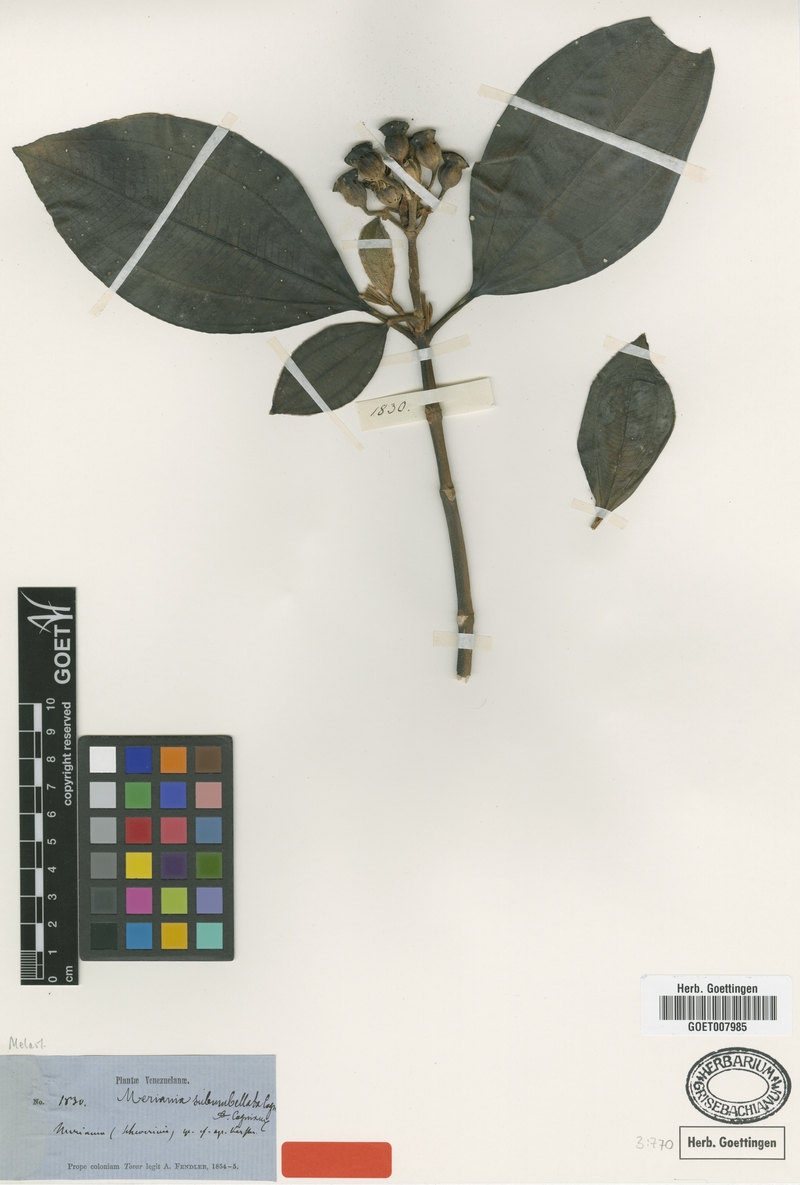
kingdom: Plantae
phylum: Tracheophyta
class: Magnoliopsida
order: Myrtales
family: Melastomataceae
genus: Meriania
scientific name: Meriania subumbellata
